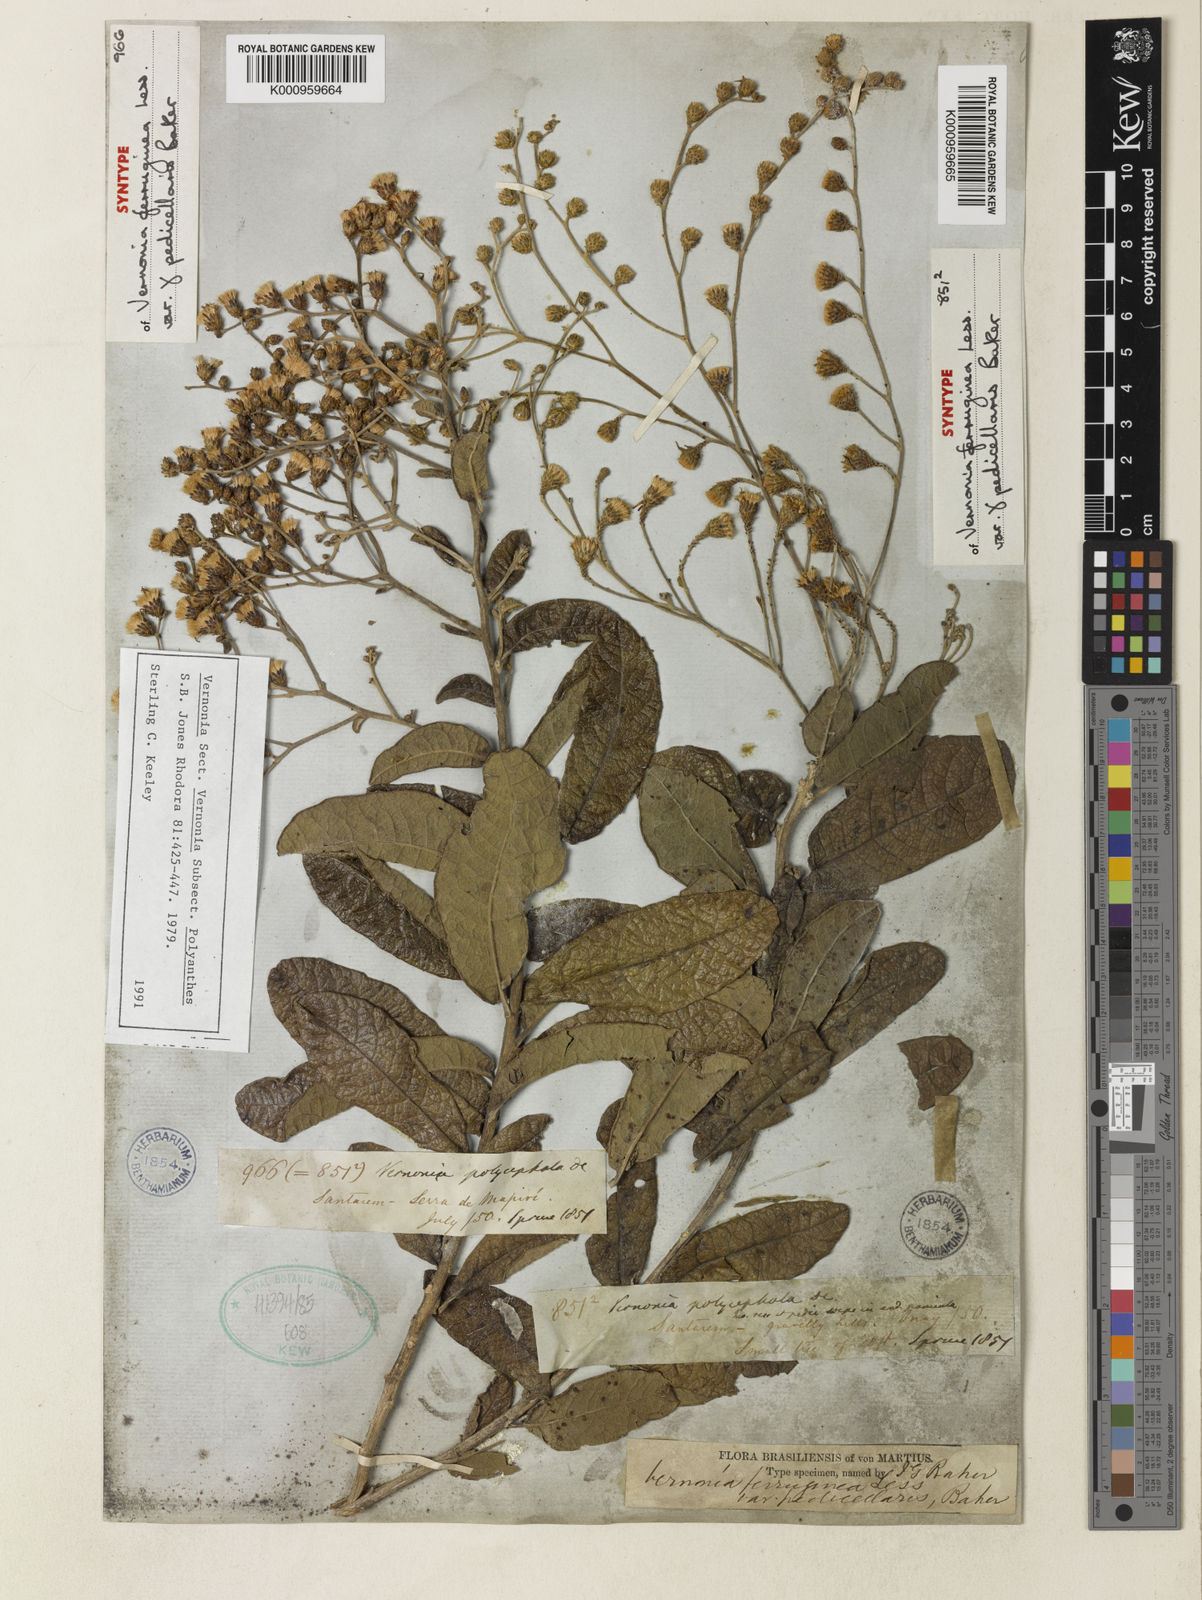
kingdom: Plantae
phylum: Tracheophyta
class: Magnoliopsida
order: Asterales
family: Asteraceae
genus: Vernonanthura
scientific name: Vernonanthura ferruginea
